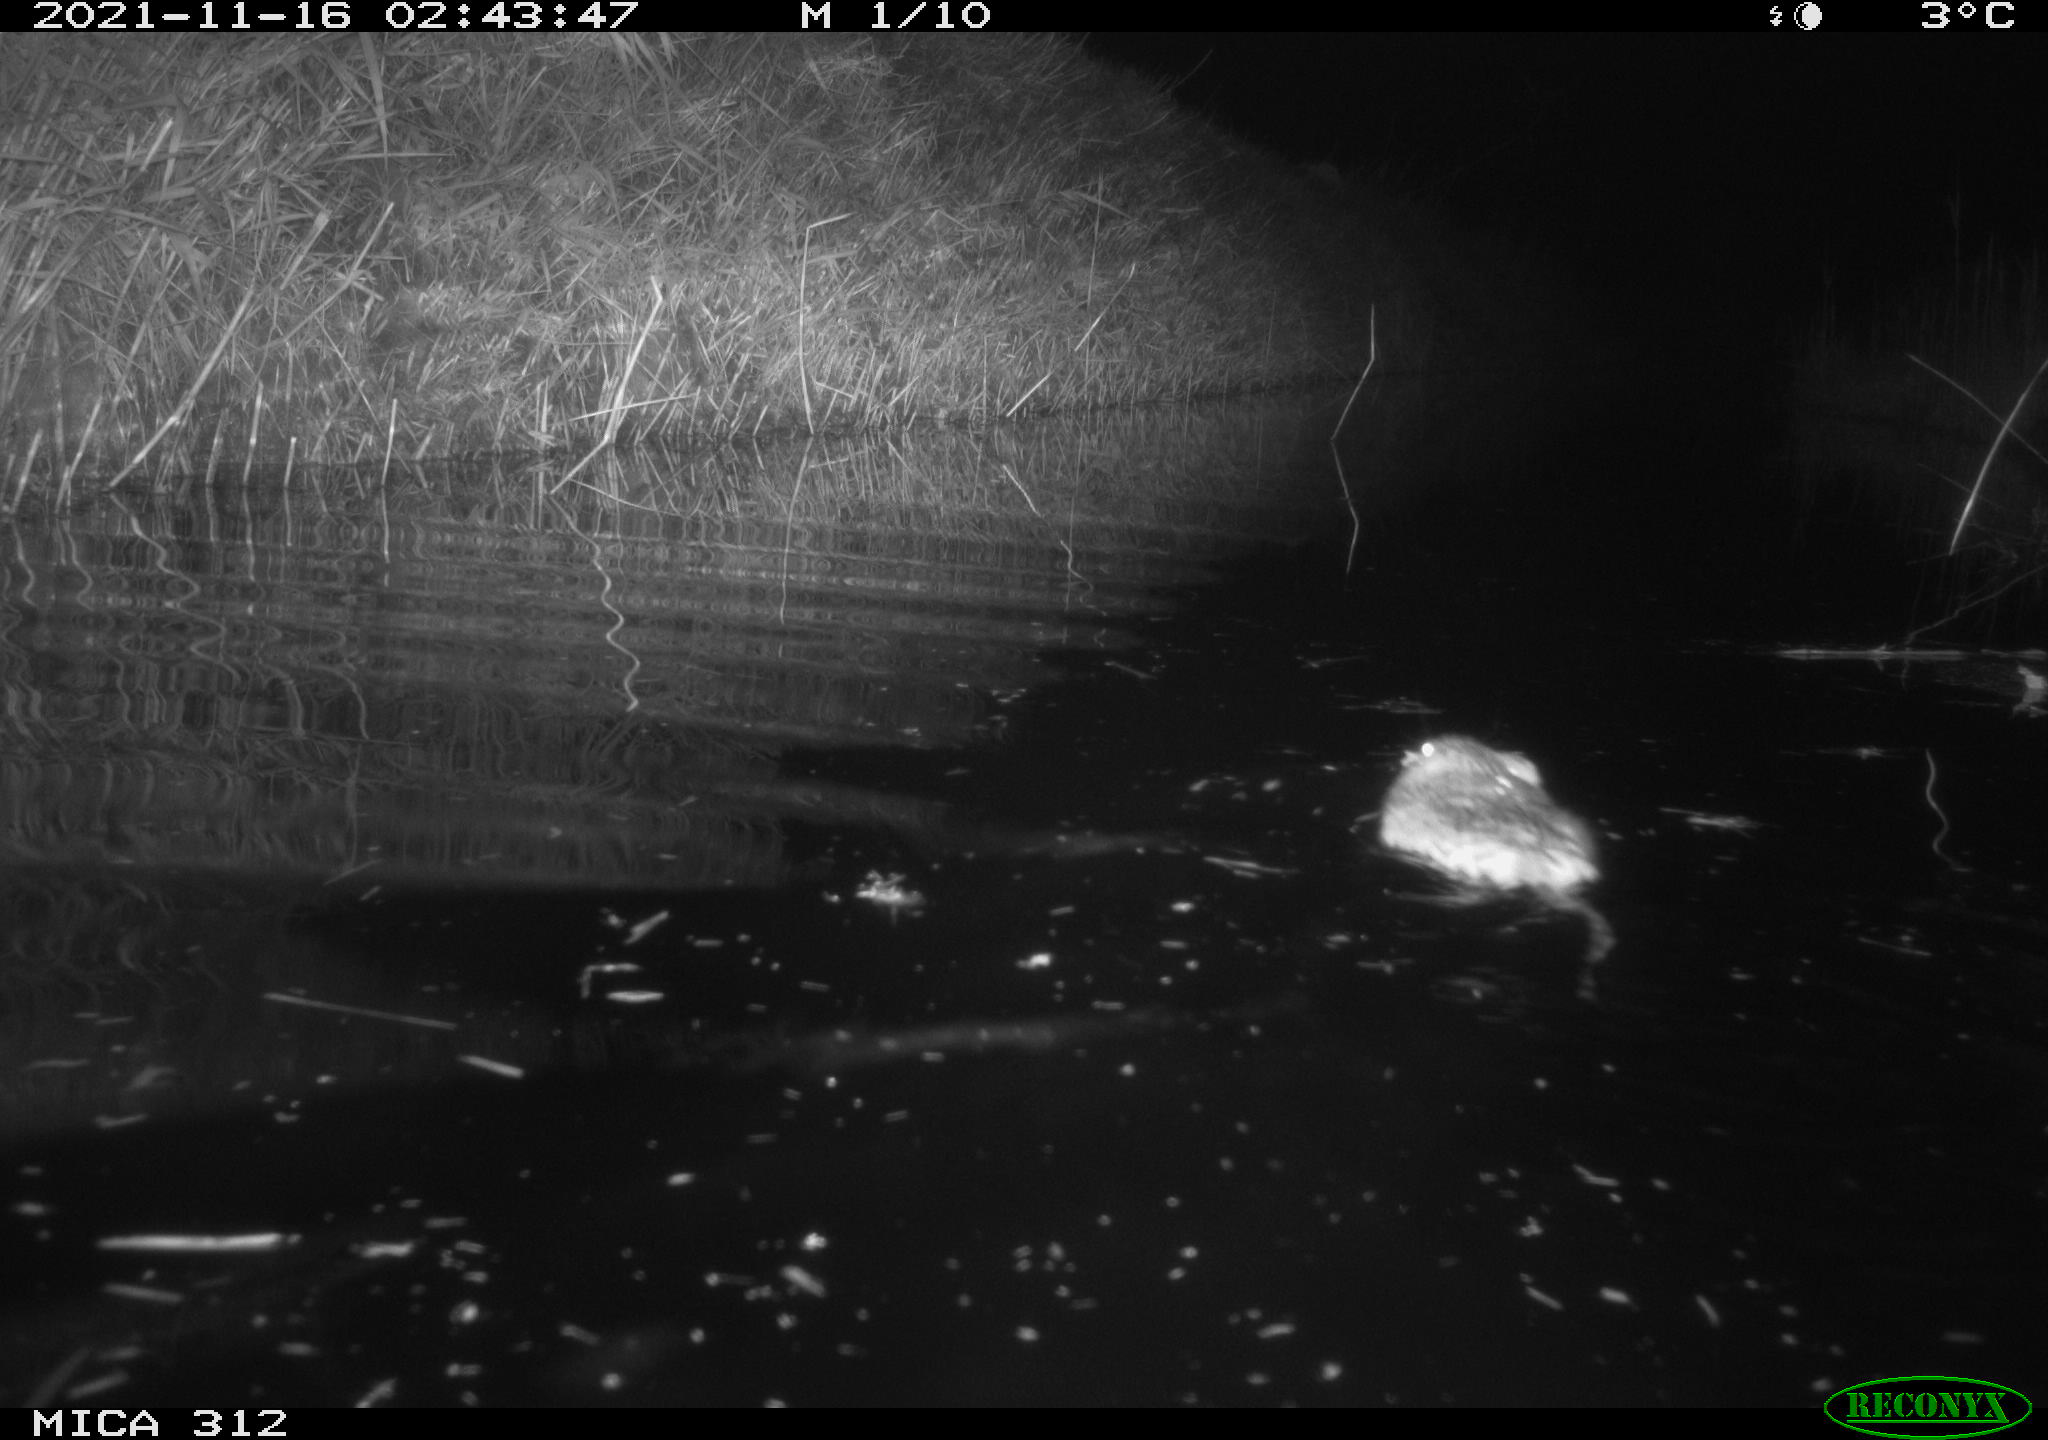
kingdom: Animalia
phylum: Chordata
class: Mammalia
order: Rodentia
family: Cricetidae
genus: Ondatra
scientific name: Ondatra zibethicus
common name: Muskrat
